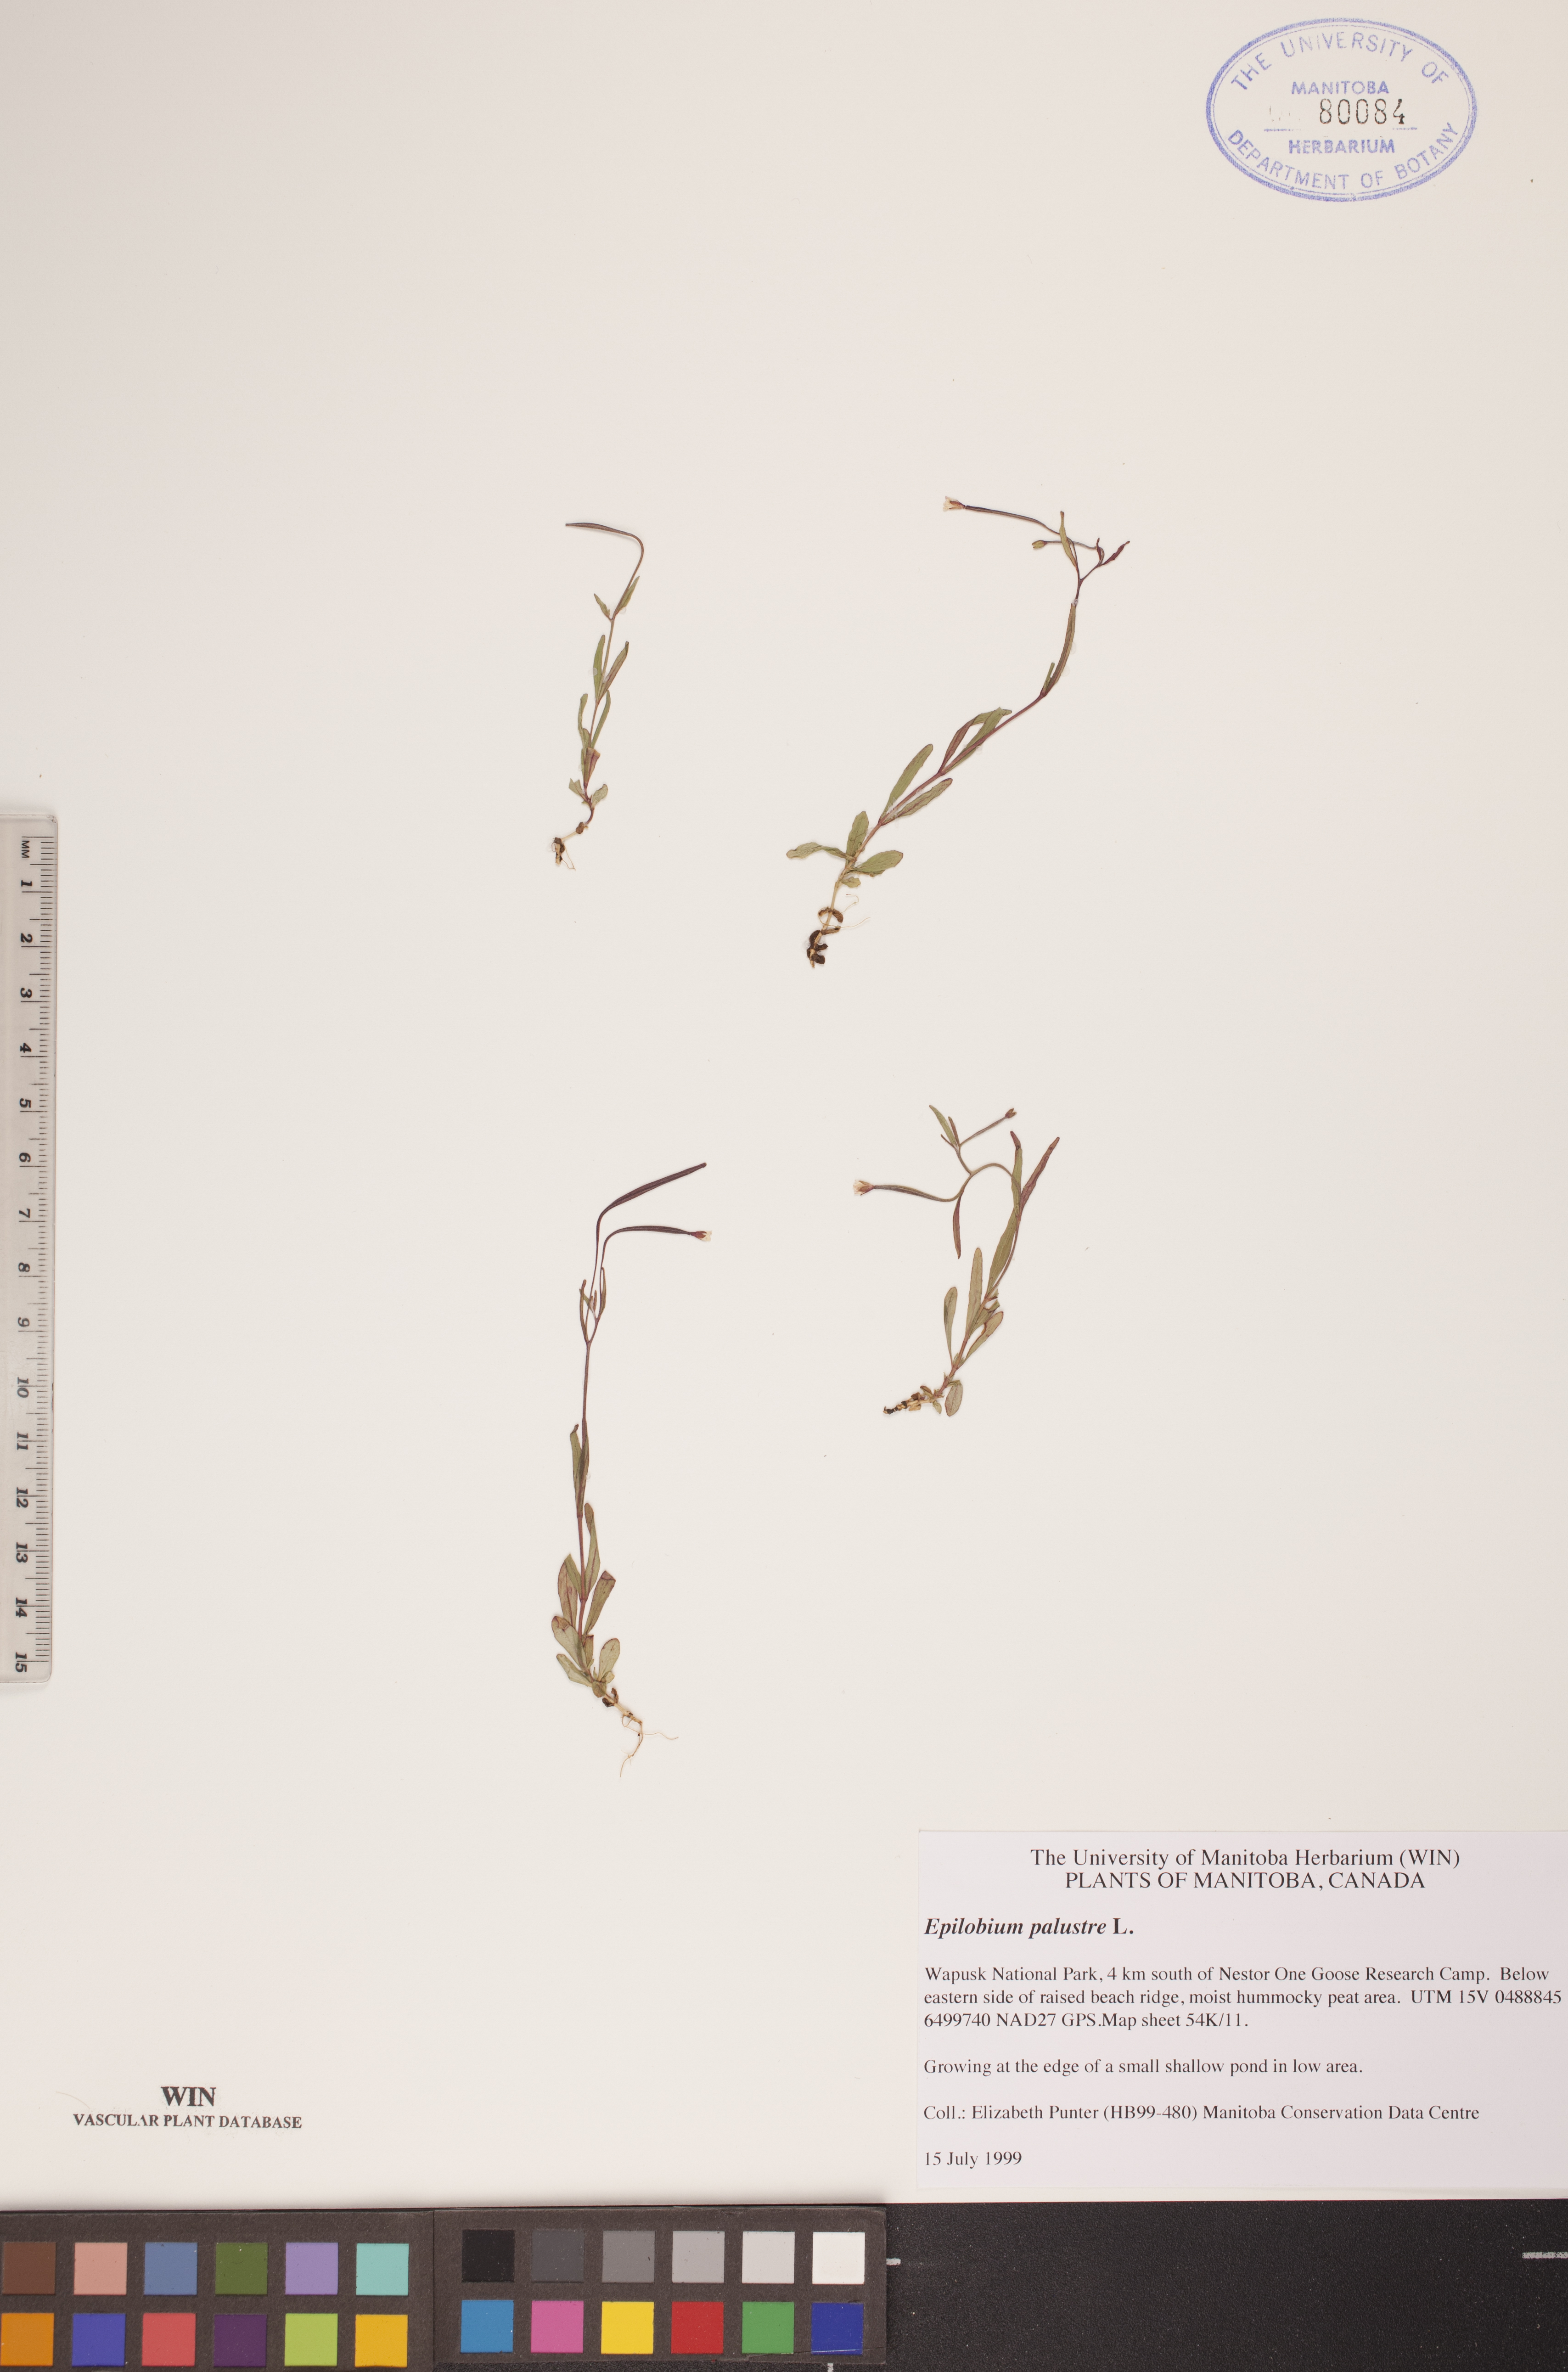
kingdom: Plantae
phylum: Tracheophyta
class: Magnoliopsida
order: Myrtales
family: Onagraceae
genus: Epilobium
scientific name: Epilobium palustre
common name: Marsh willowherb
